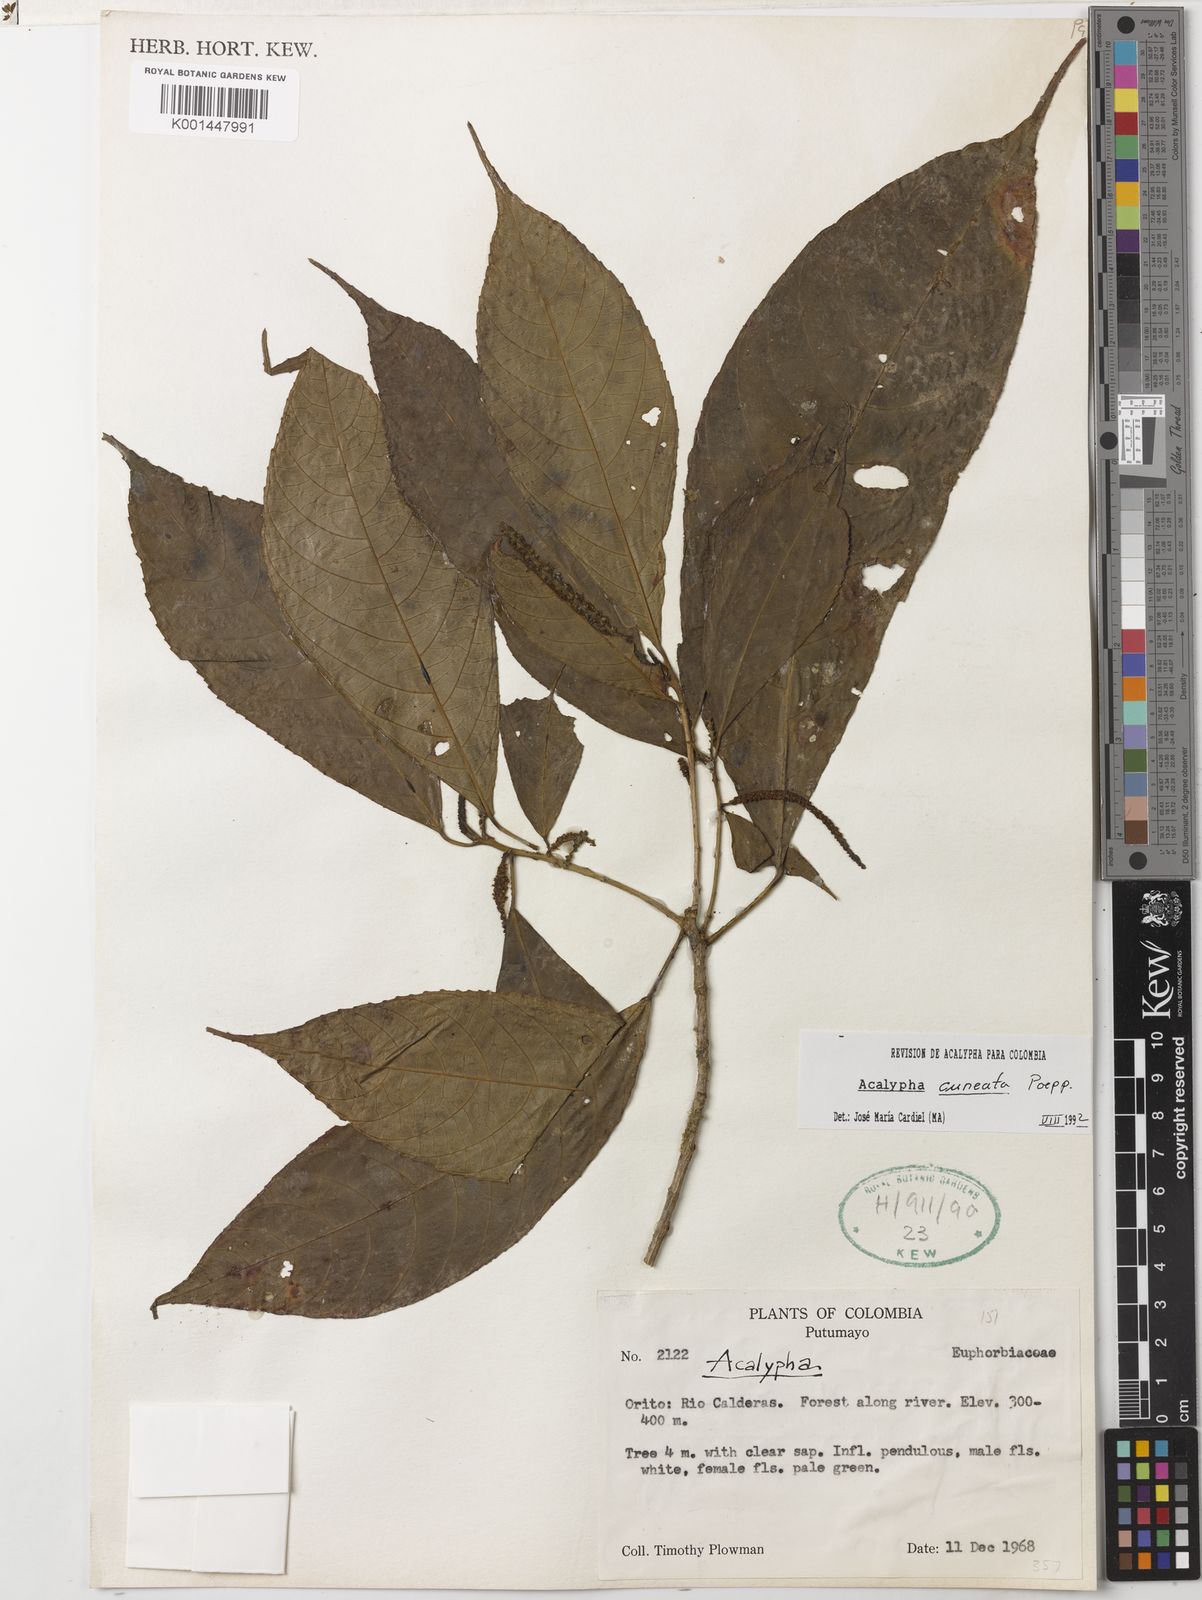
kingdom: Plantae
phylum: Tracheophyta
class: Magnoliopsida
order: Malpighiales
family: Euphorbiaceae
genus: Acalypha
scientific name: Acalypha cuneata
